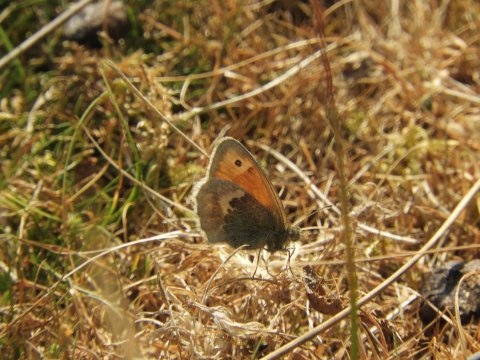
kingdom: Animalia
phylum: Arthropoda
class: Insecta
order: Lepidoptera
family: Nymphalidae
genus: Coenonympha
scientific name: Coenonympha pamphilus
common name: Small Heath
